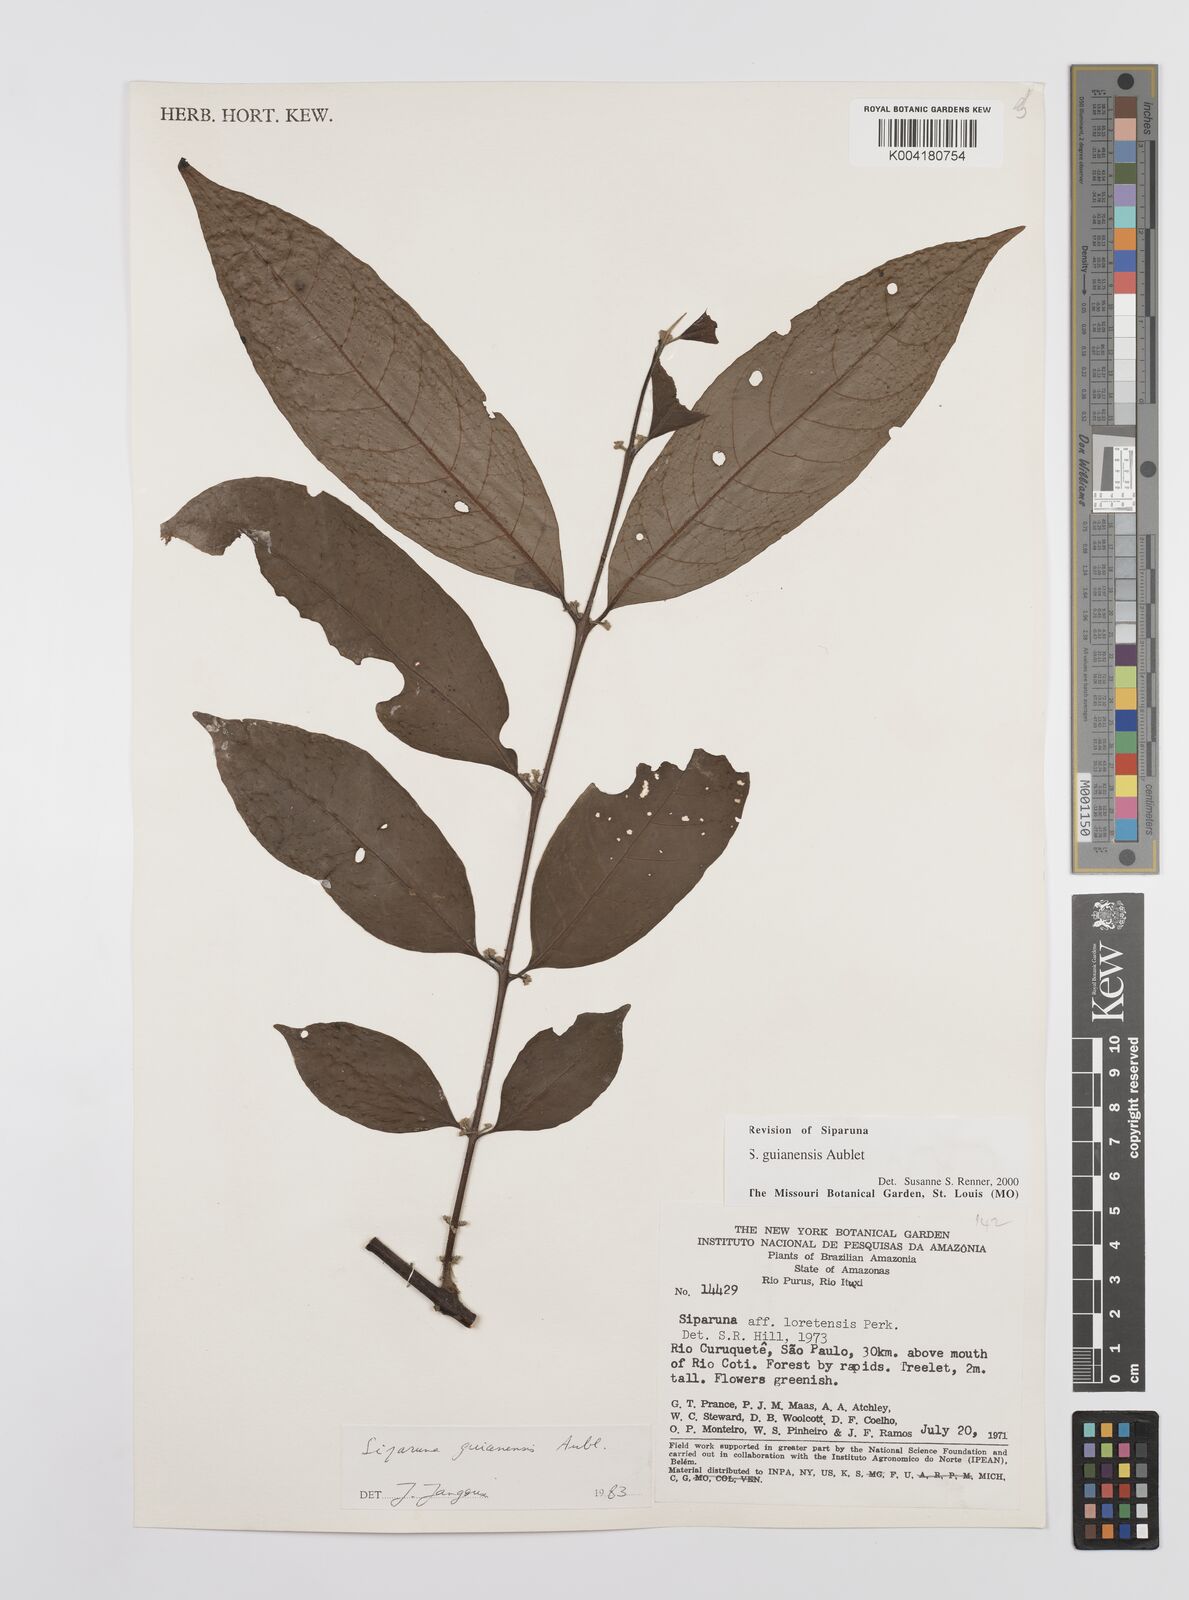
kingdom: Plantae
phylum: Tracheophyta
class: Magnoliopsida
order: Laurales
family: Siparunaceae
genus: Siparuna
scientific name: Siparuna guianensis
